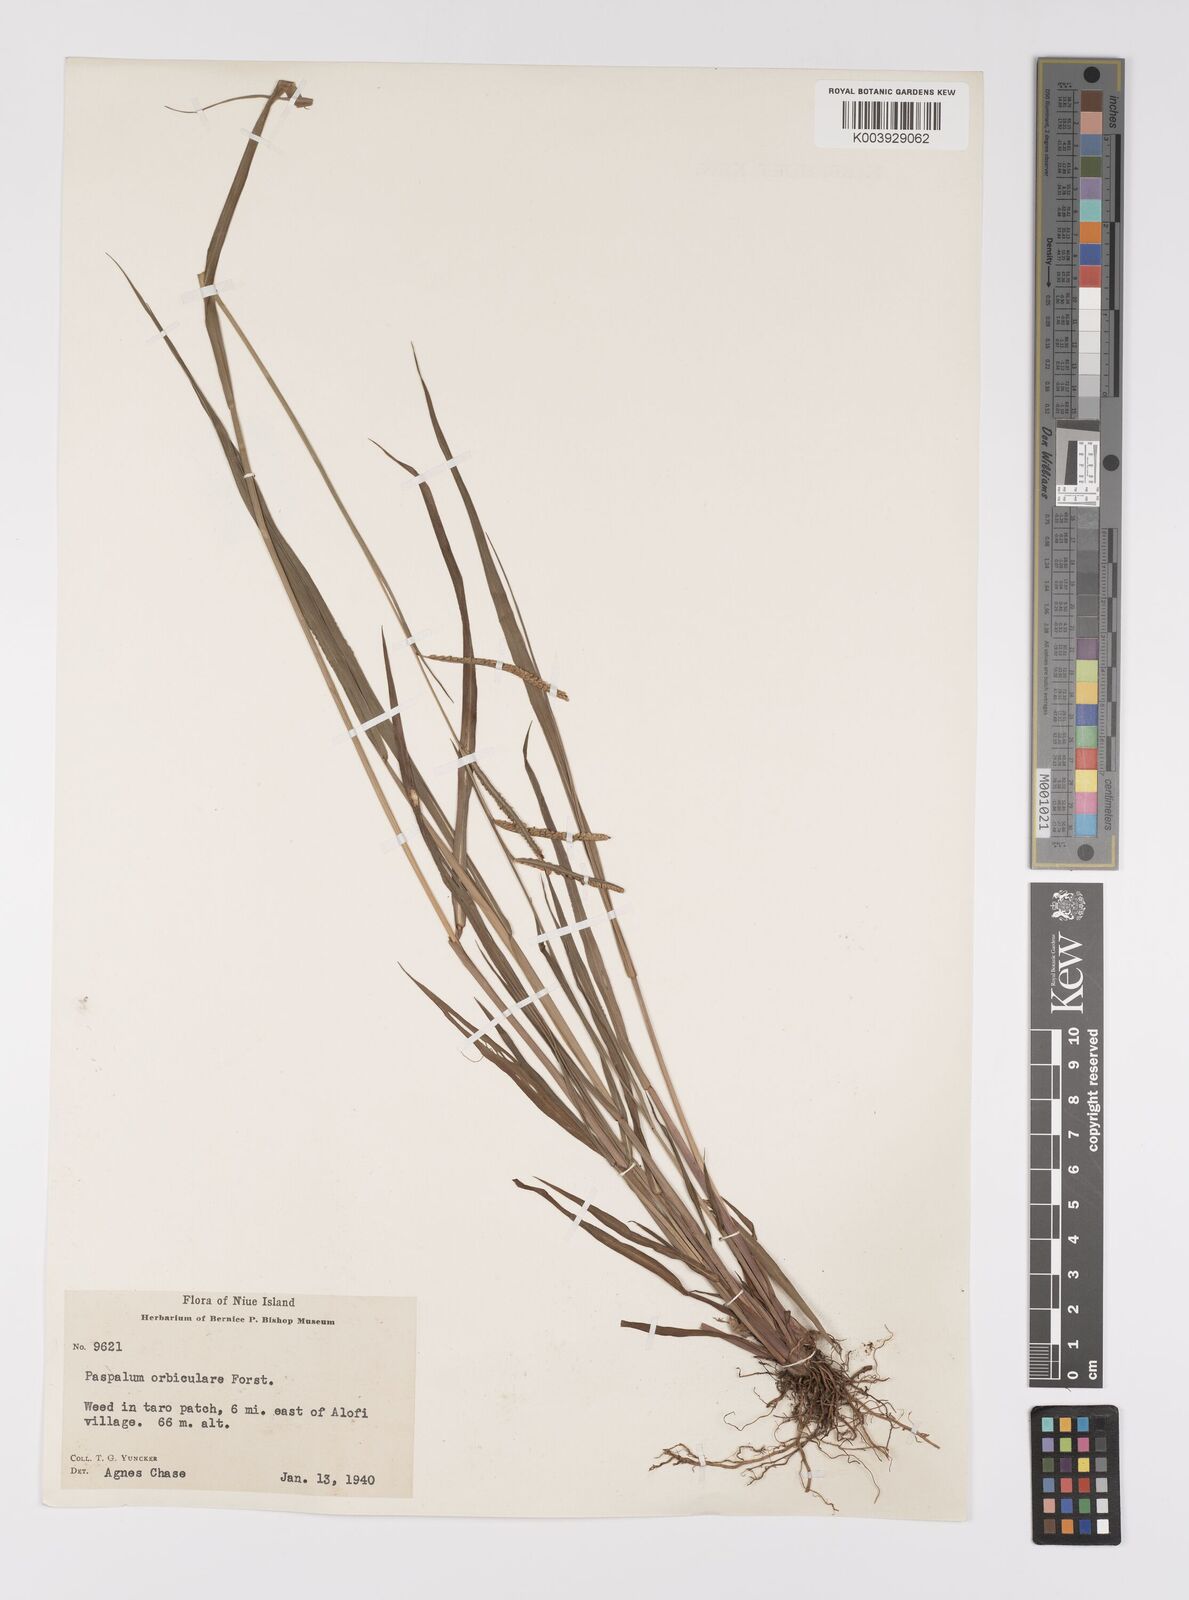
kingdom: Plantae
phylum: Tracheophyta
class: Liliopsida
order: Poales
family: Poaceae
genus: Paspalum
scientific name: Paspalum scrobiculatum
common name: Kodo millet
